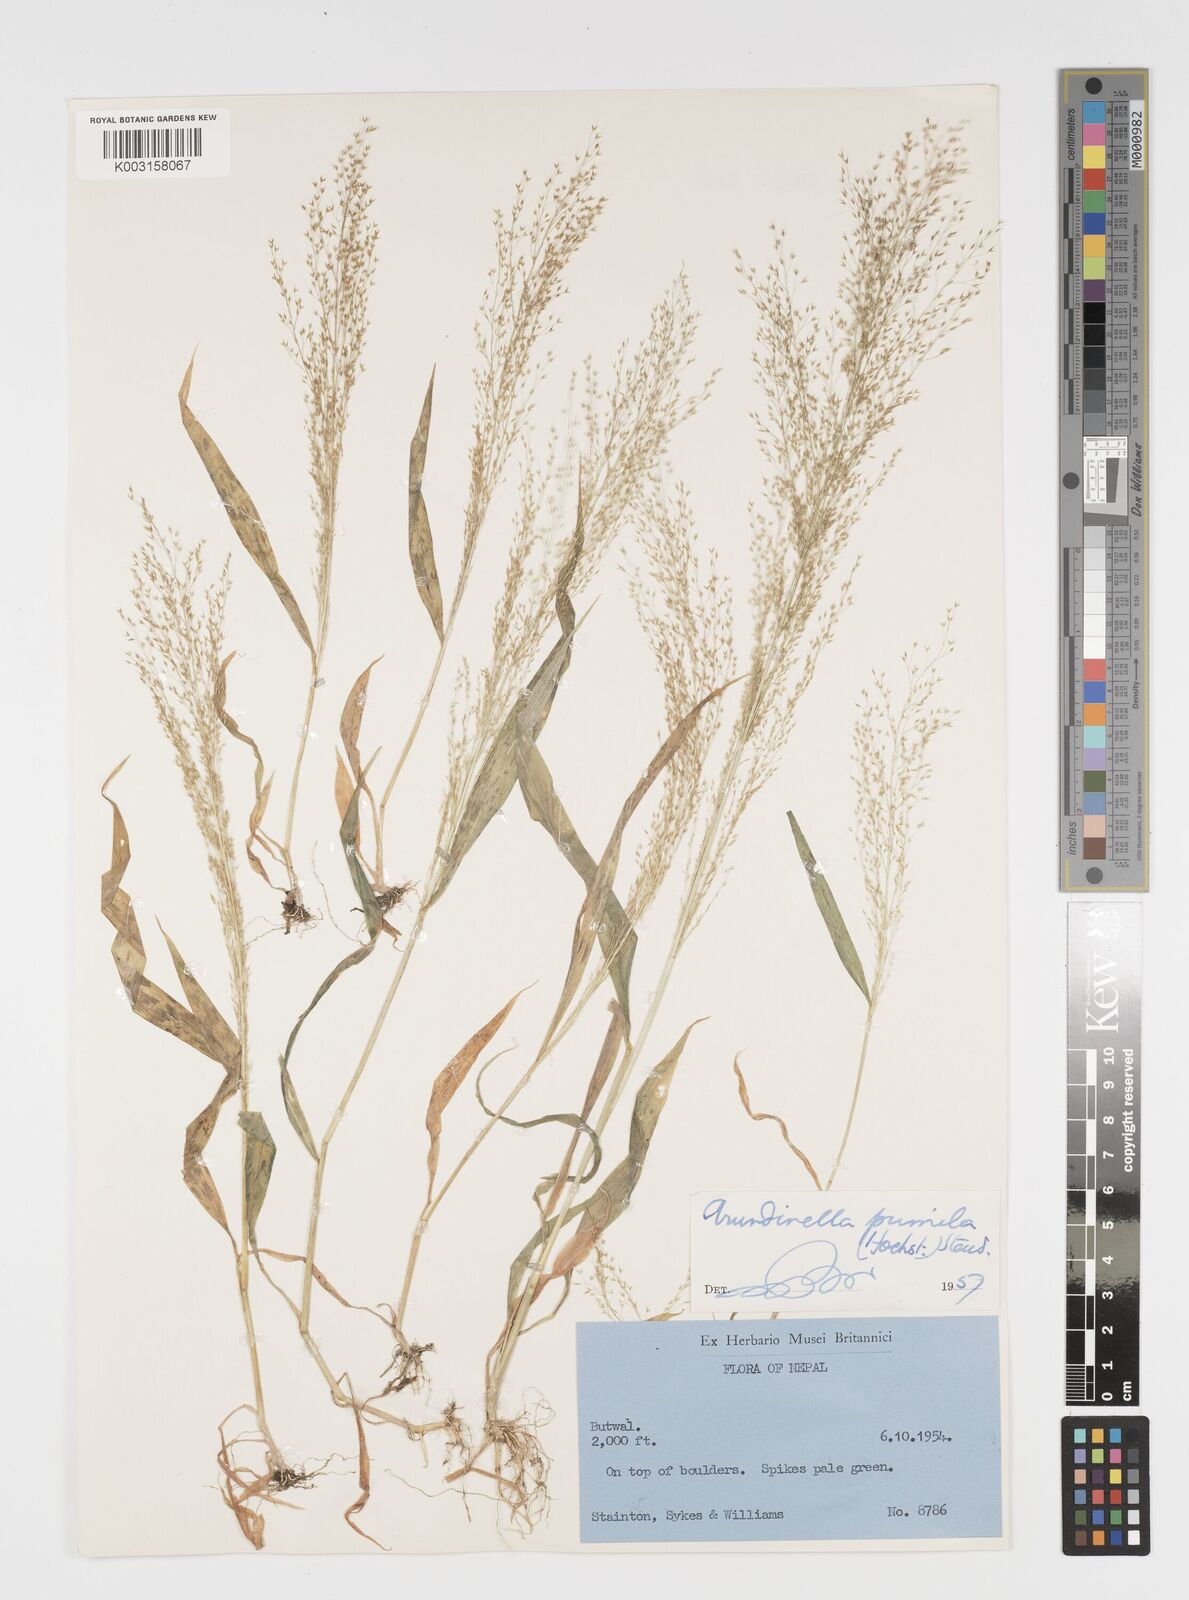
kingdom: Plantae
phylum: Tracheophyta
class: Liliopsida
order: Poales
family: Poaceae
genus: Arundinella
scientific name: Arundinella pumila
